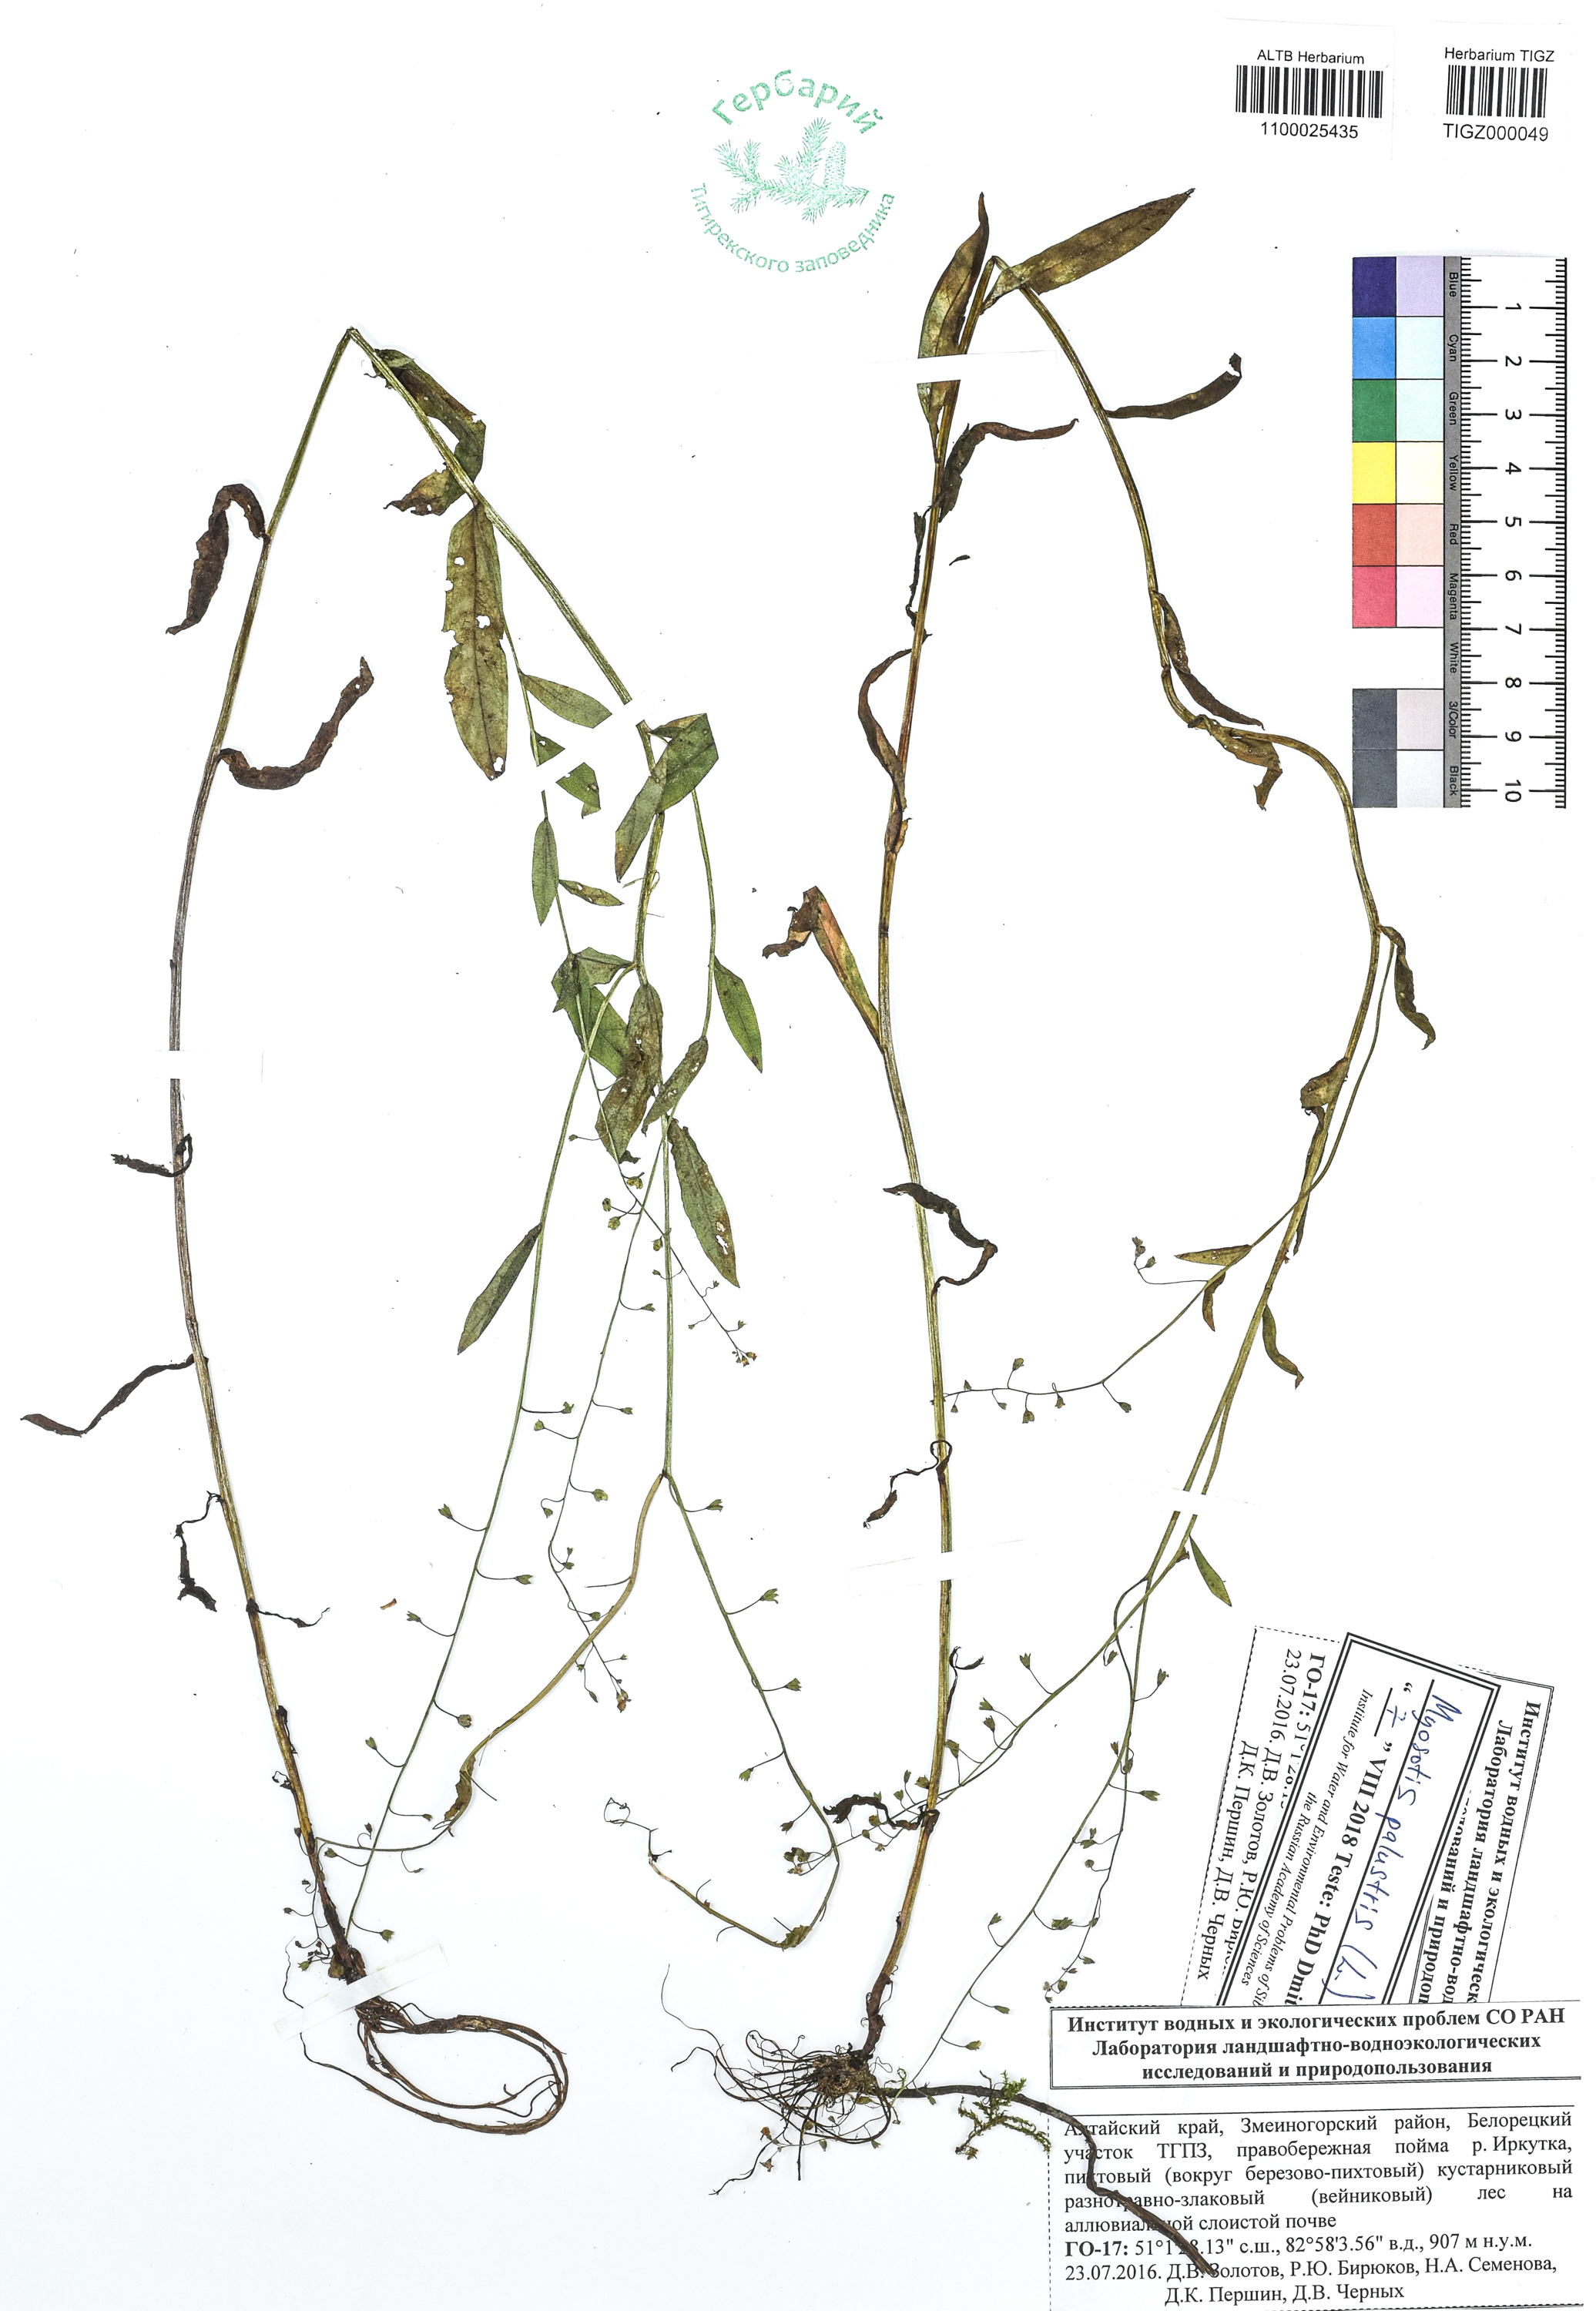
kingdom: Plantae
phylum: Tracheophyta
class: Magnoliopsida
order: Boraginales
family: Boraginaceae
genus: Myosotis
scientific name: Myosotis scorpioides
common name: Water forget-me-not
